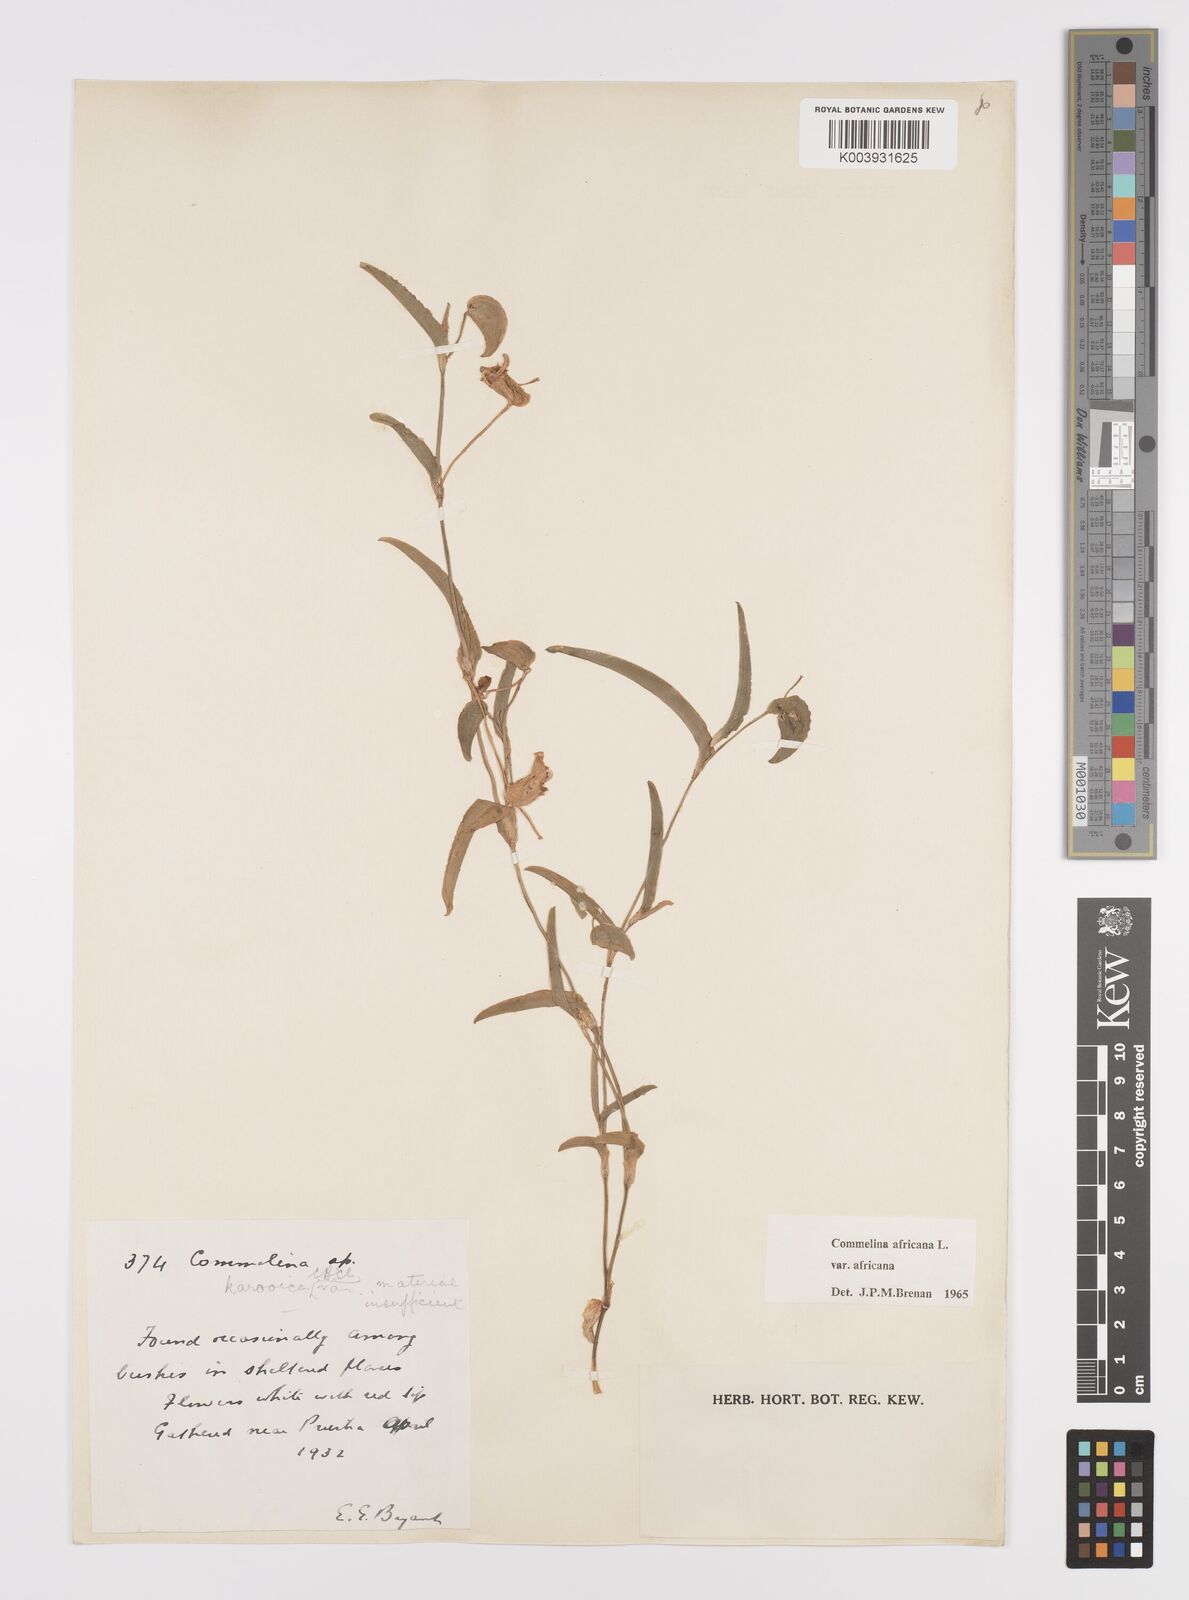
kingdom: Plantae
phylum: Tracheophyta
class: Liliopsida
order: Commelinales
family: Commelinaceae
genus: Commelina
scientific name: Commelina africana
